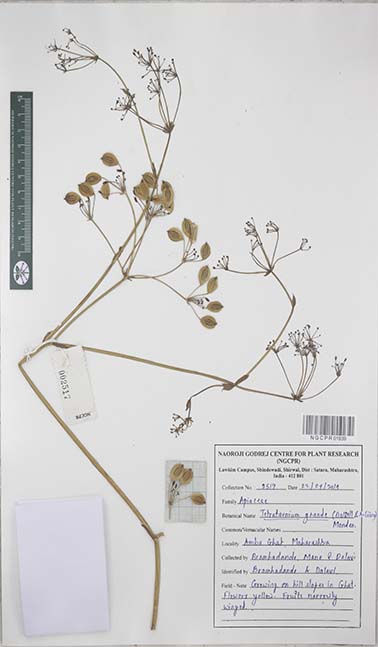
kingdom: Plantae
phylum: Tracheophyta
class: Magnoliopsida
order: Apiales
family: Apiaceae
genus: Tetrataenium
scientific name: Tetrataenium grande
